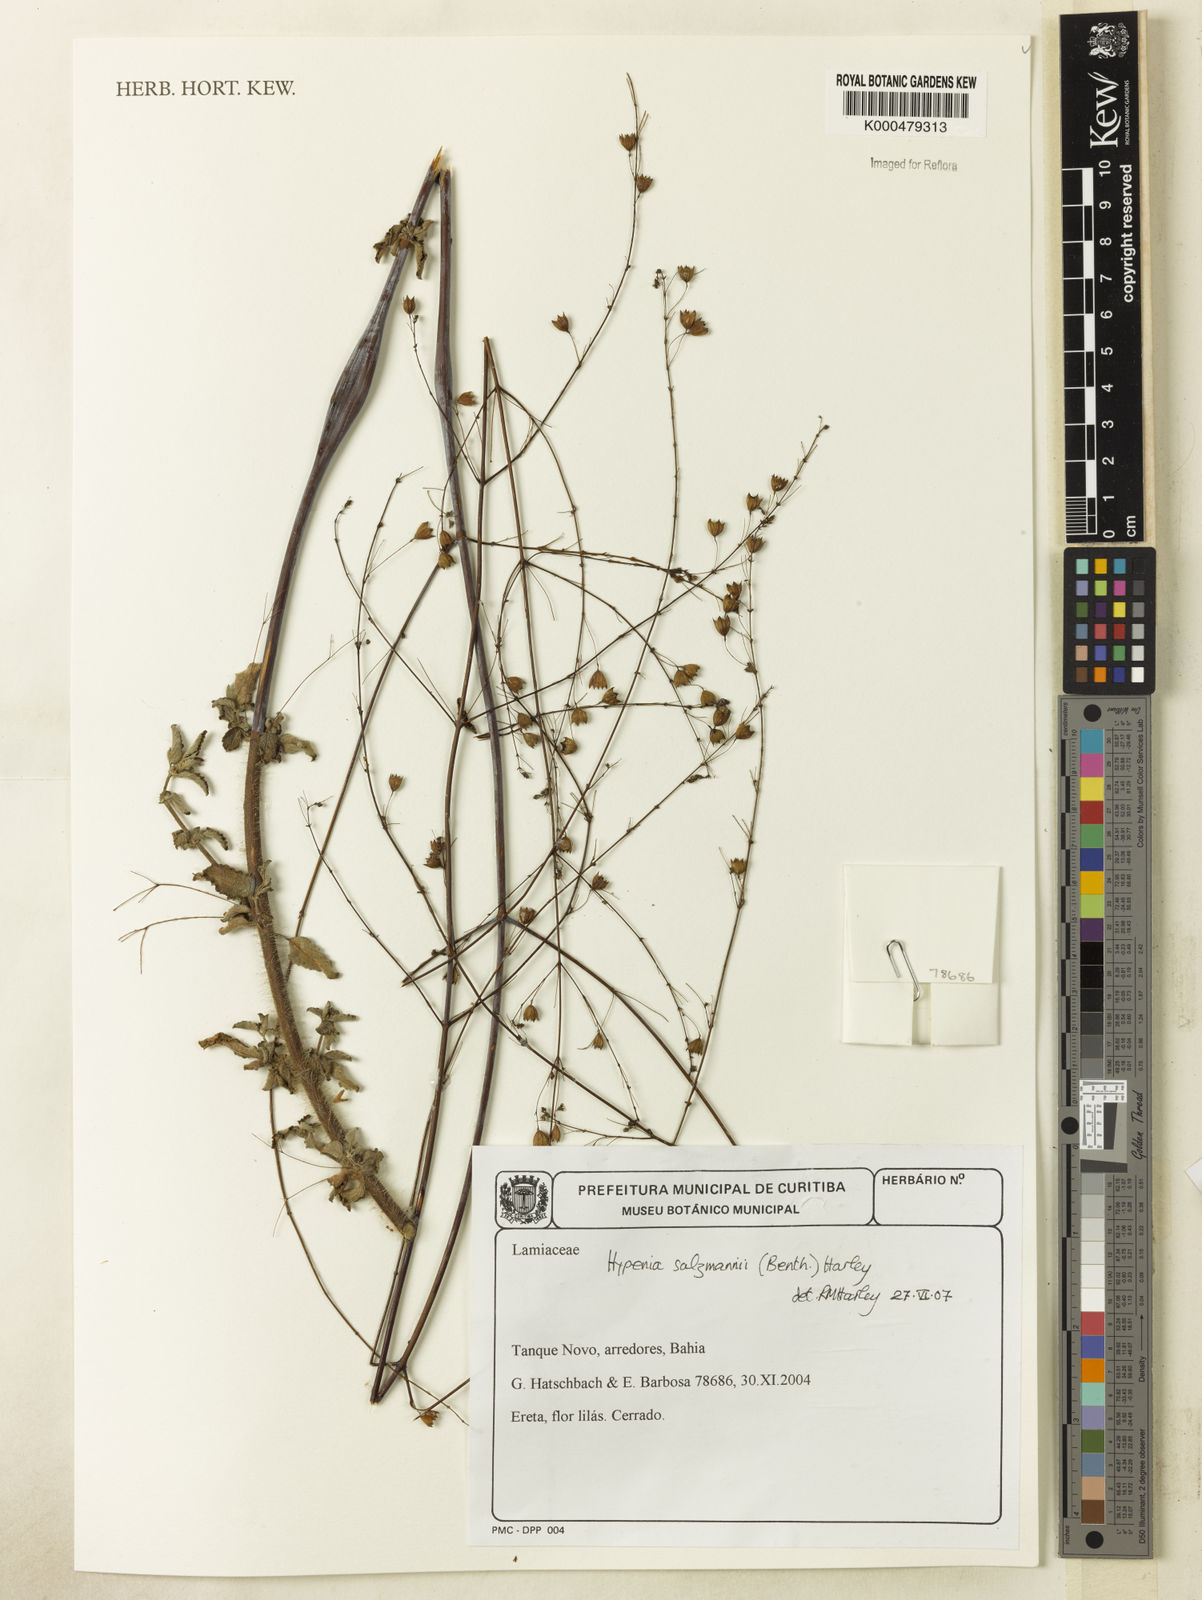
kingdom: Plantae
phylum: Tracheophyta
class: Magnoliopsida
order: Lamiales
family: Lamiaceae
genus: Hypenia
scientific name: Hypenia salzmannii
